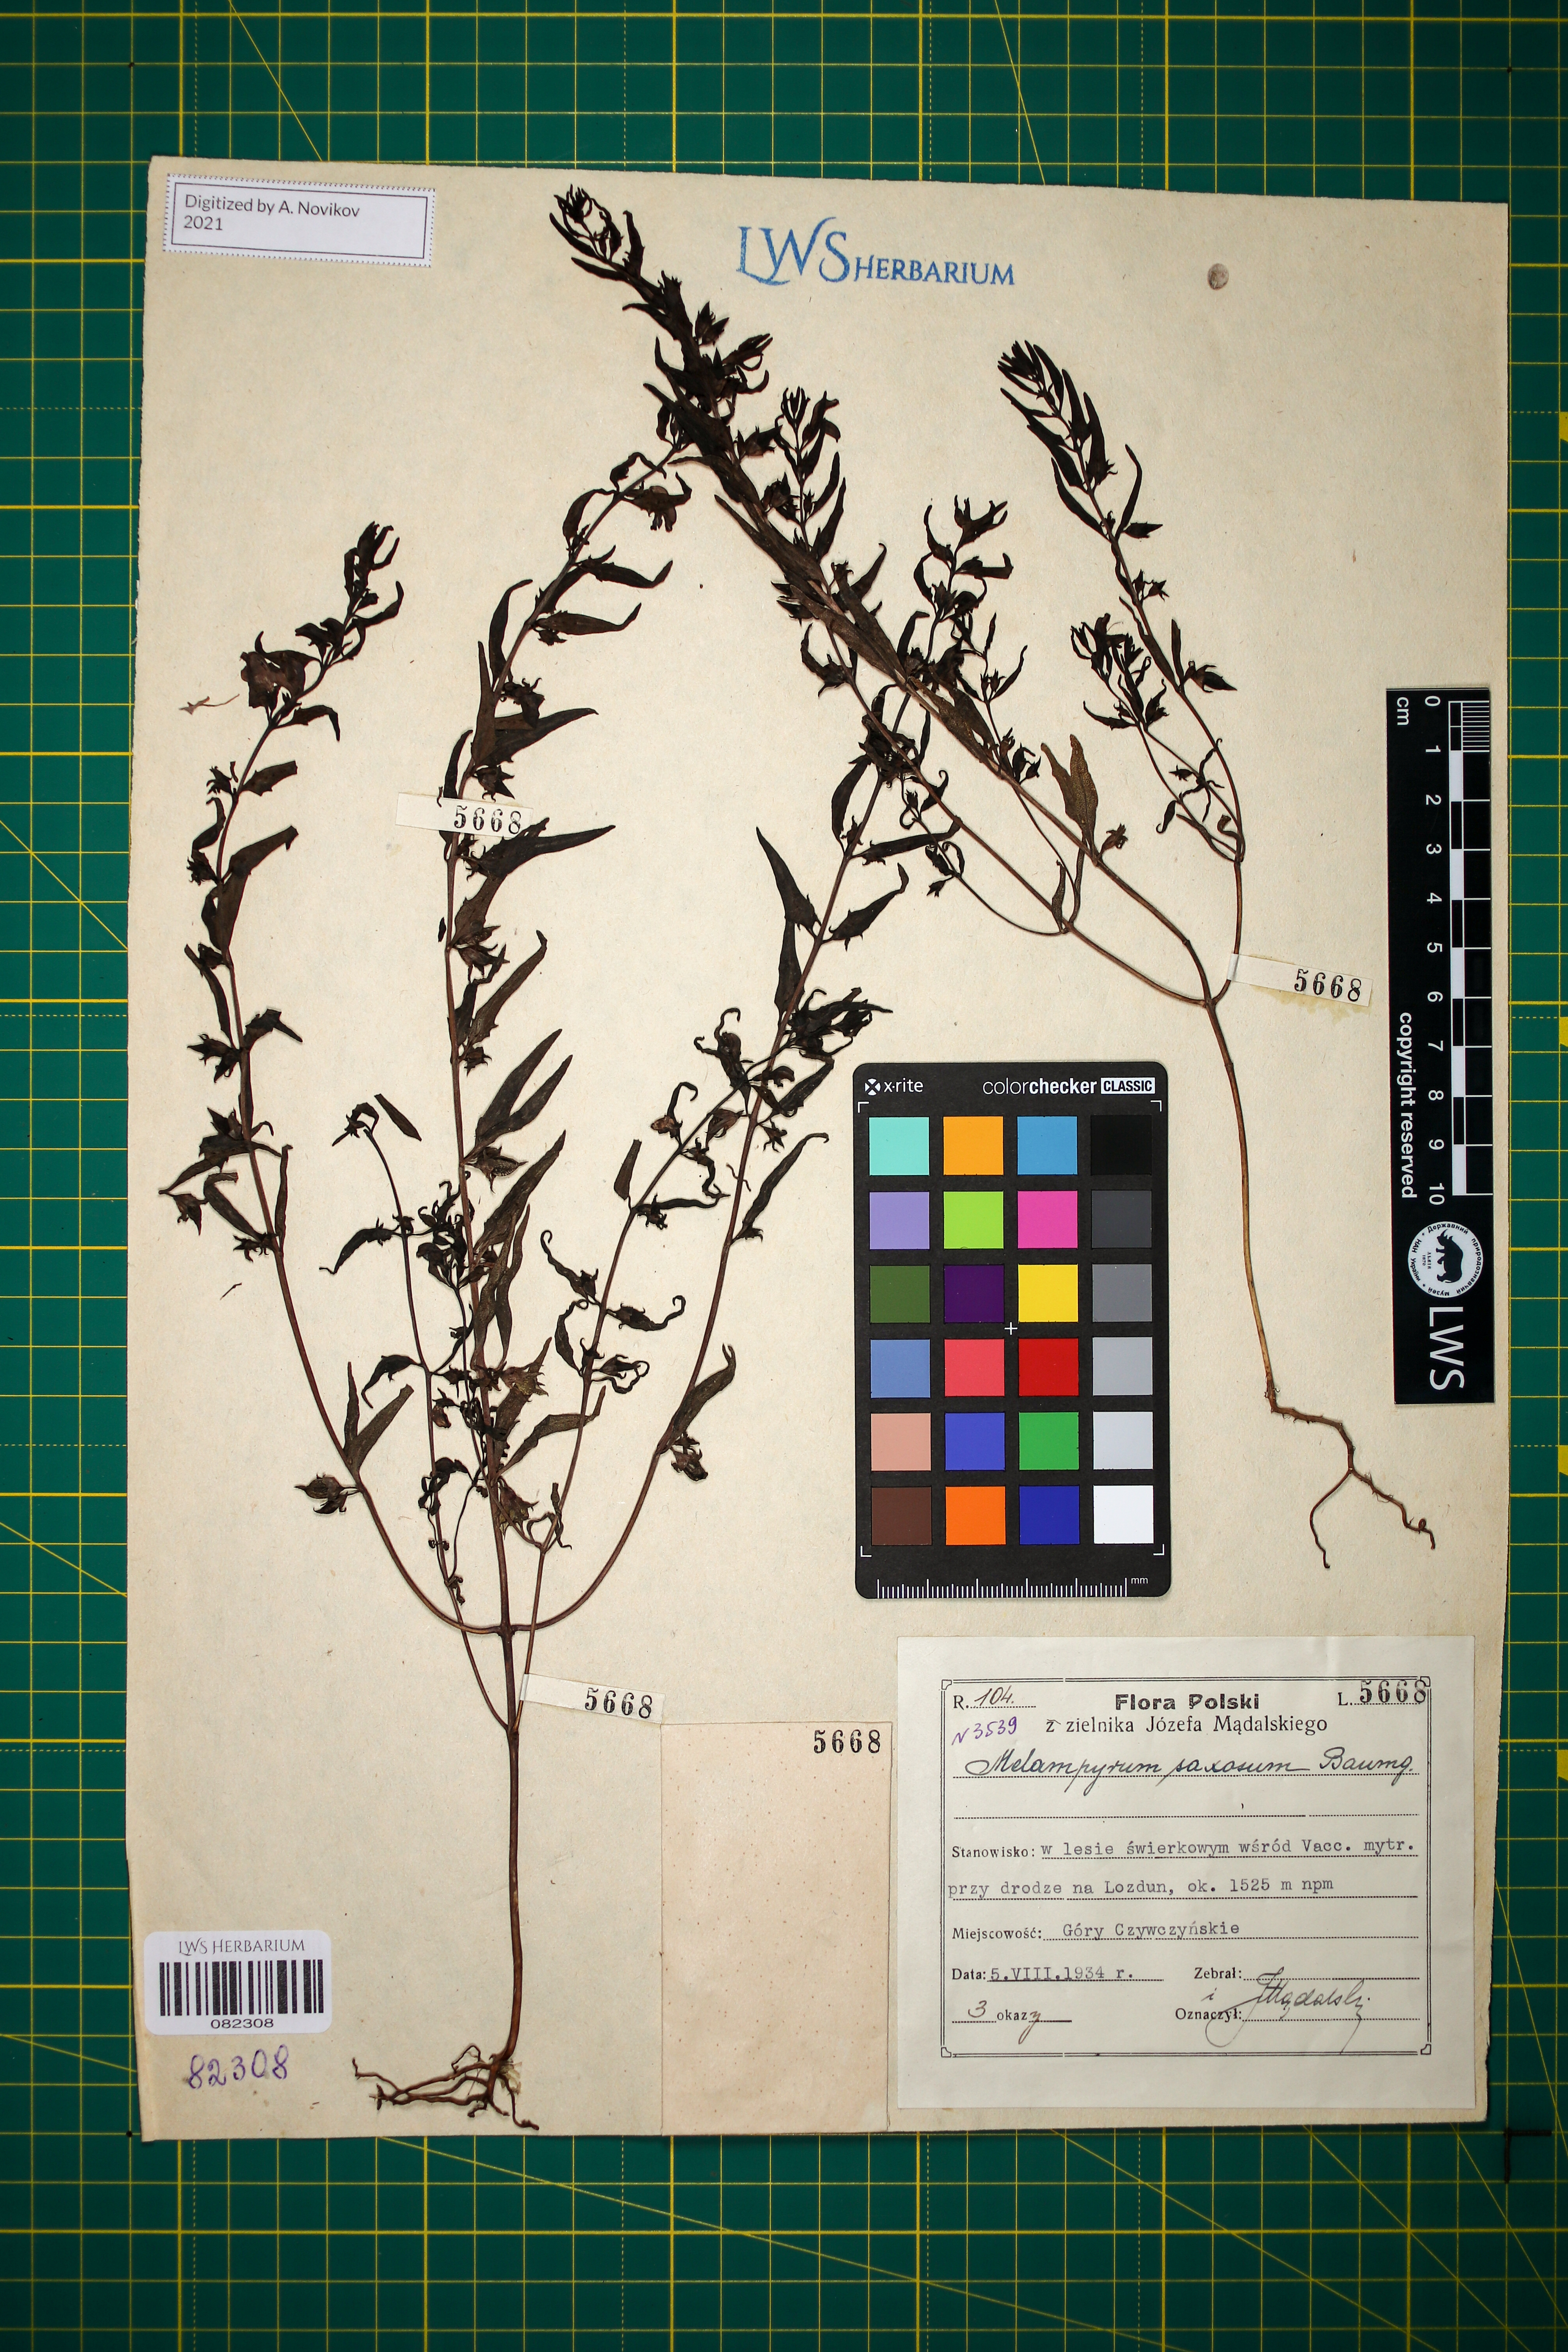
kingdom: Plantae
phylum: Tracheophyta
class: Magnoliopsida
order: Lamiales
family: Orobanchaceae
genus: Melampyrum
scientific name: Melampyrum saxosum
